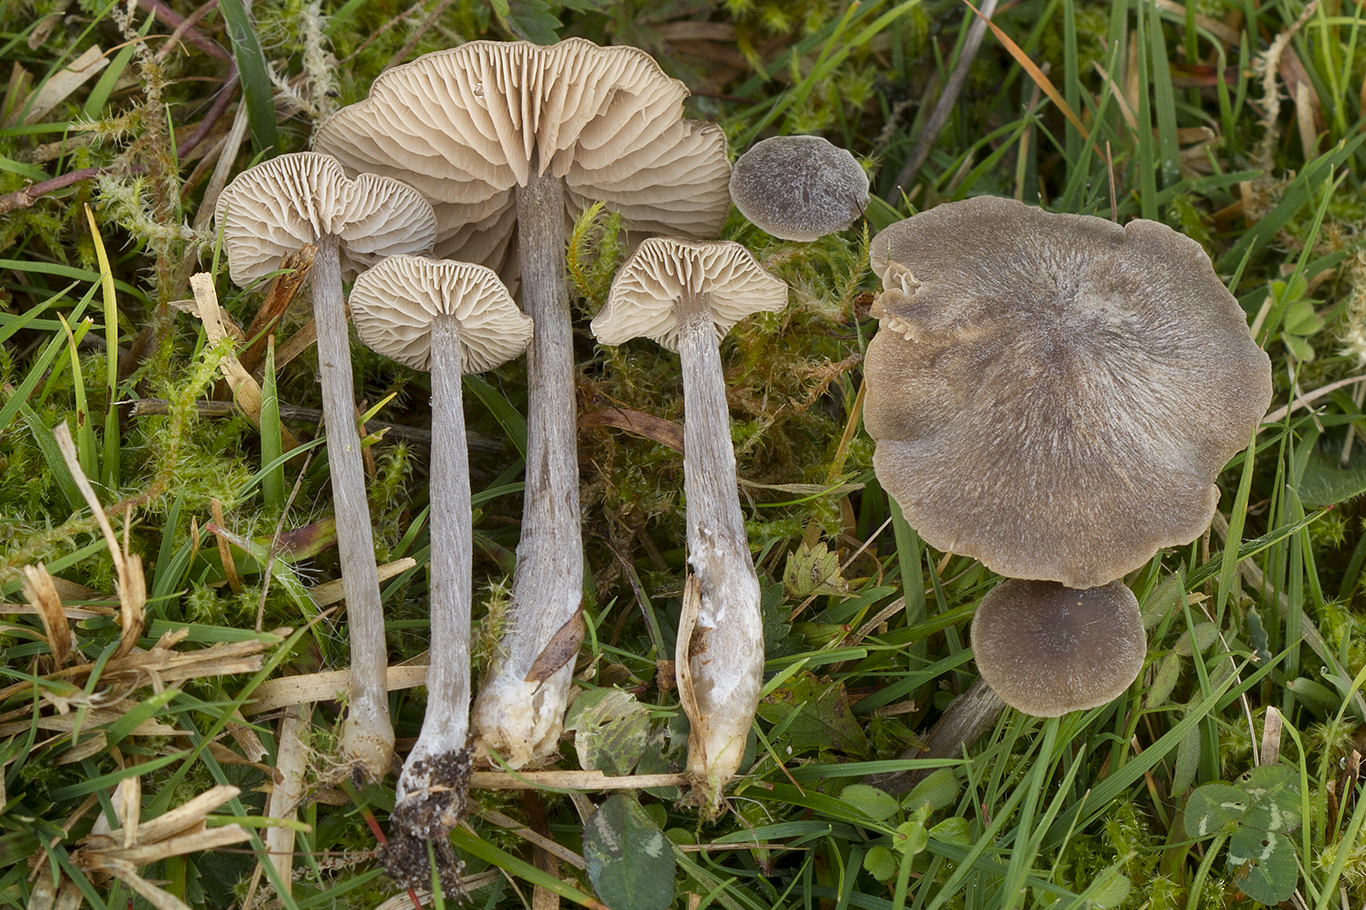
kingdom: Fungi
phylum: Basidiomycota
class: Agaricomycetes
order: Agaricales
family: Entolomataceae
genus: Entoloma
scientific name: Entoloma ortonii
